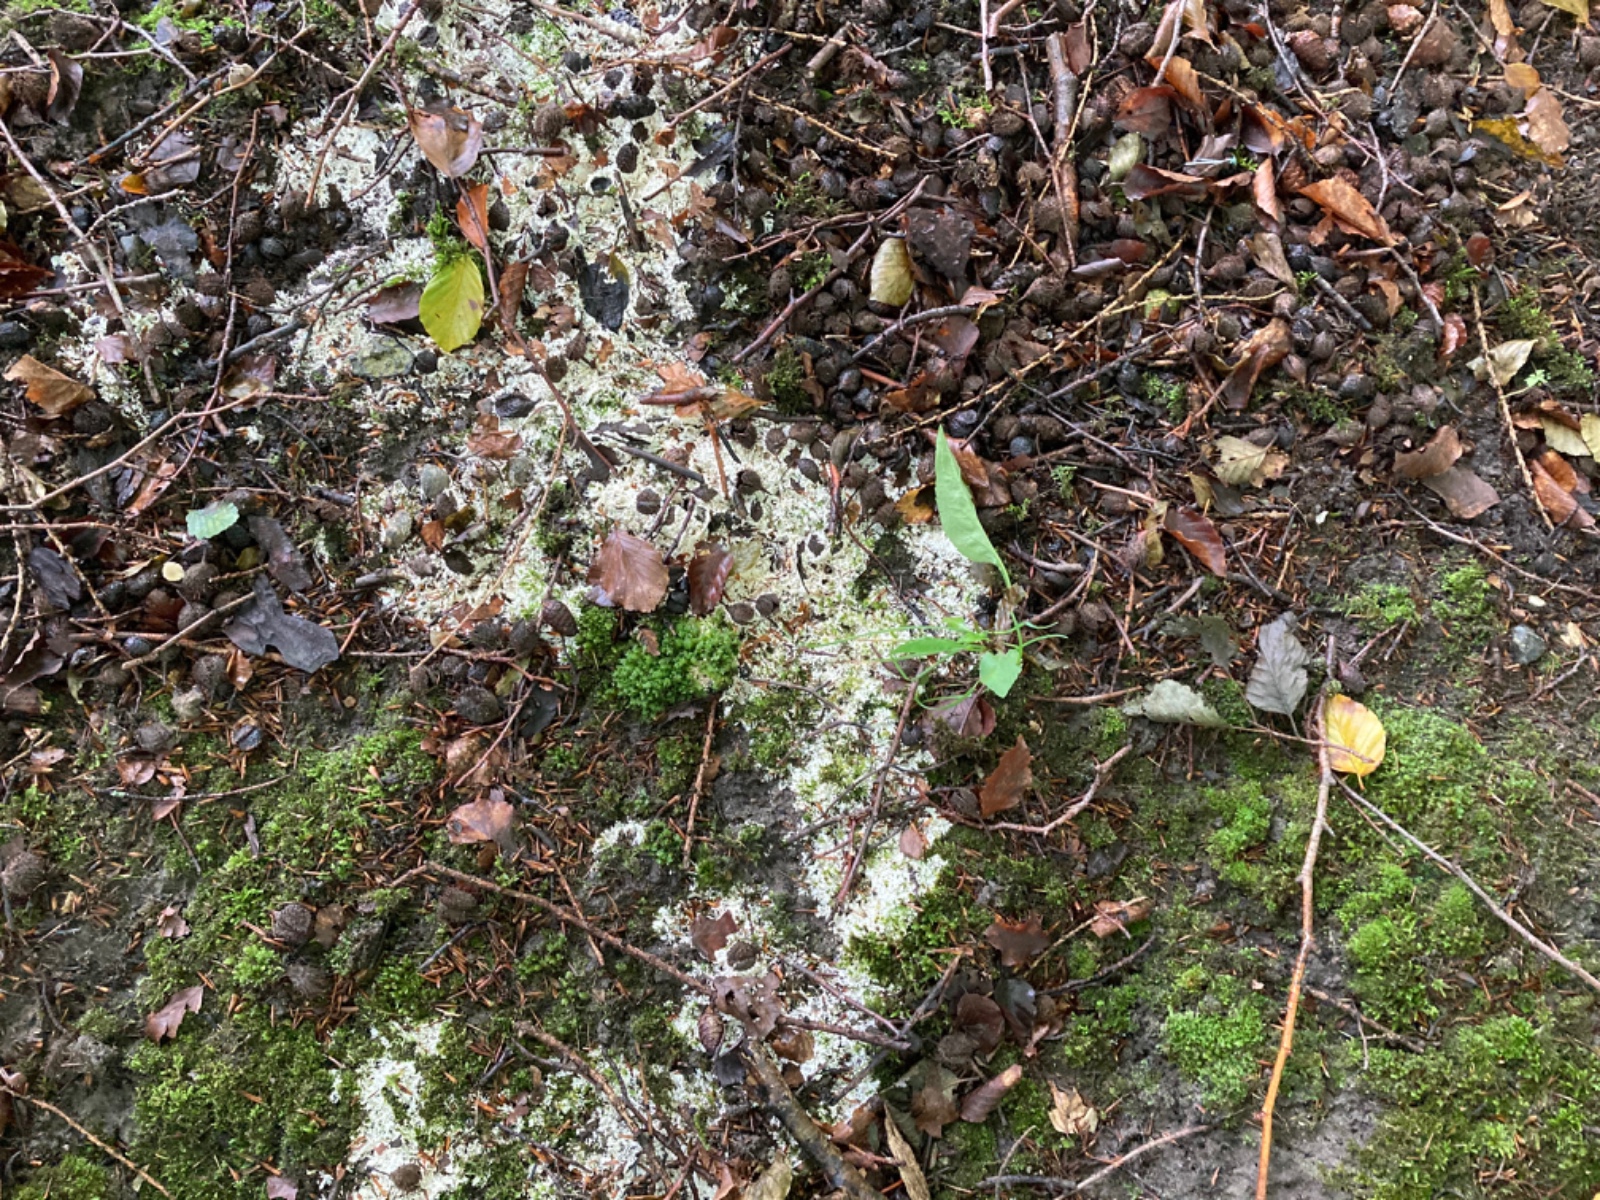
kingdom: Fungi
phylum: Basidiomycota
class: Agaricomycetes
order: Trechisporales
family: Sistotremataceae
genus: Trechispora
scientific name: Trechispora fastidiosa
